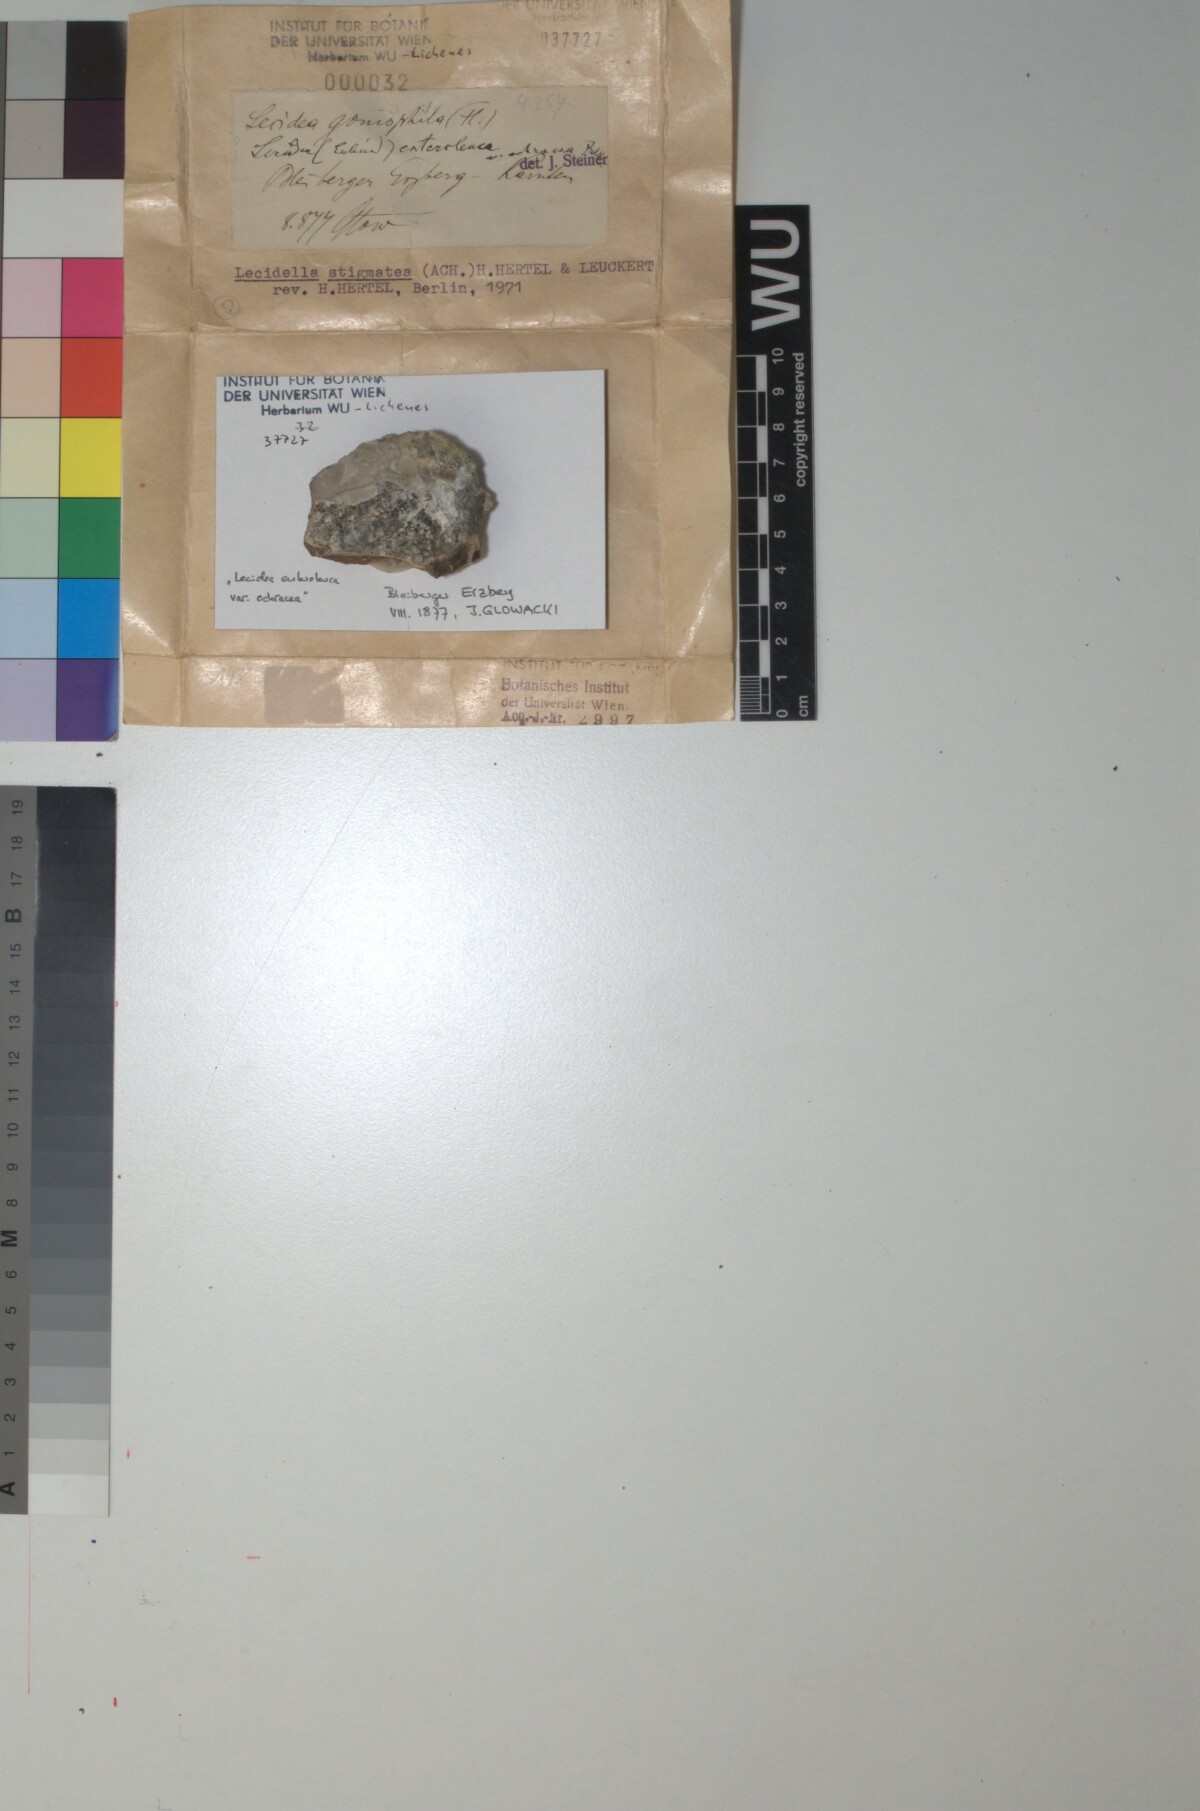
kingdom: Fungi
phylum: Ascomycota
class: Lecanoromycetes
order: Lecanorales
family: Lecanoraceae
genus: Lecidella
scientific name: Lecidella stigmatea
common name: Limestone disc lichen
